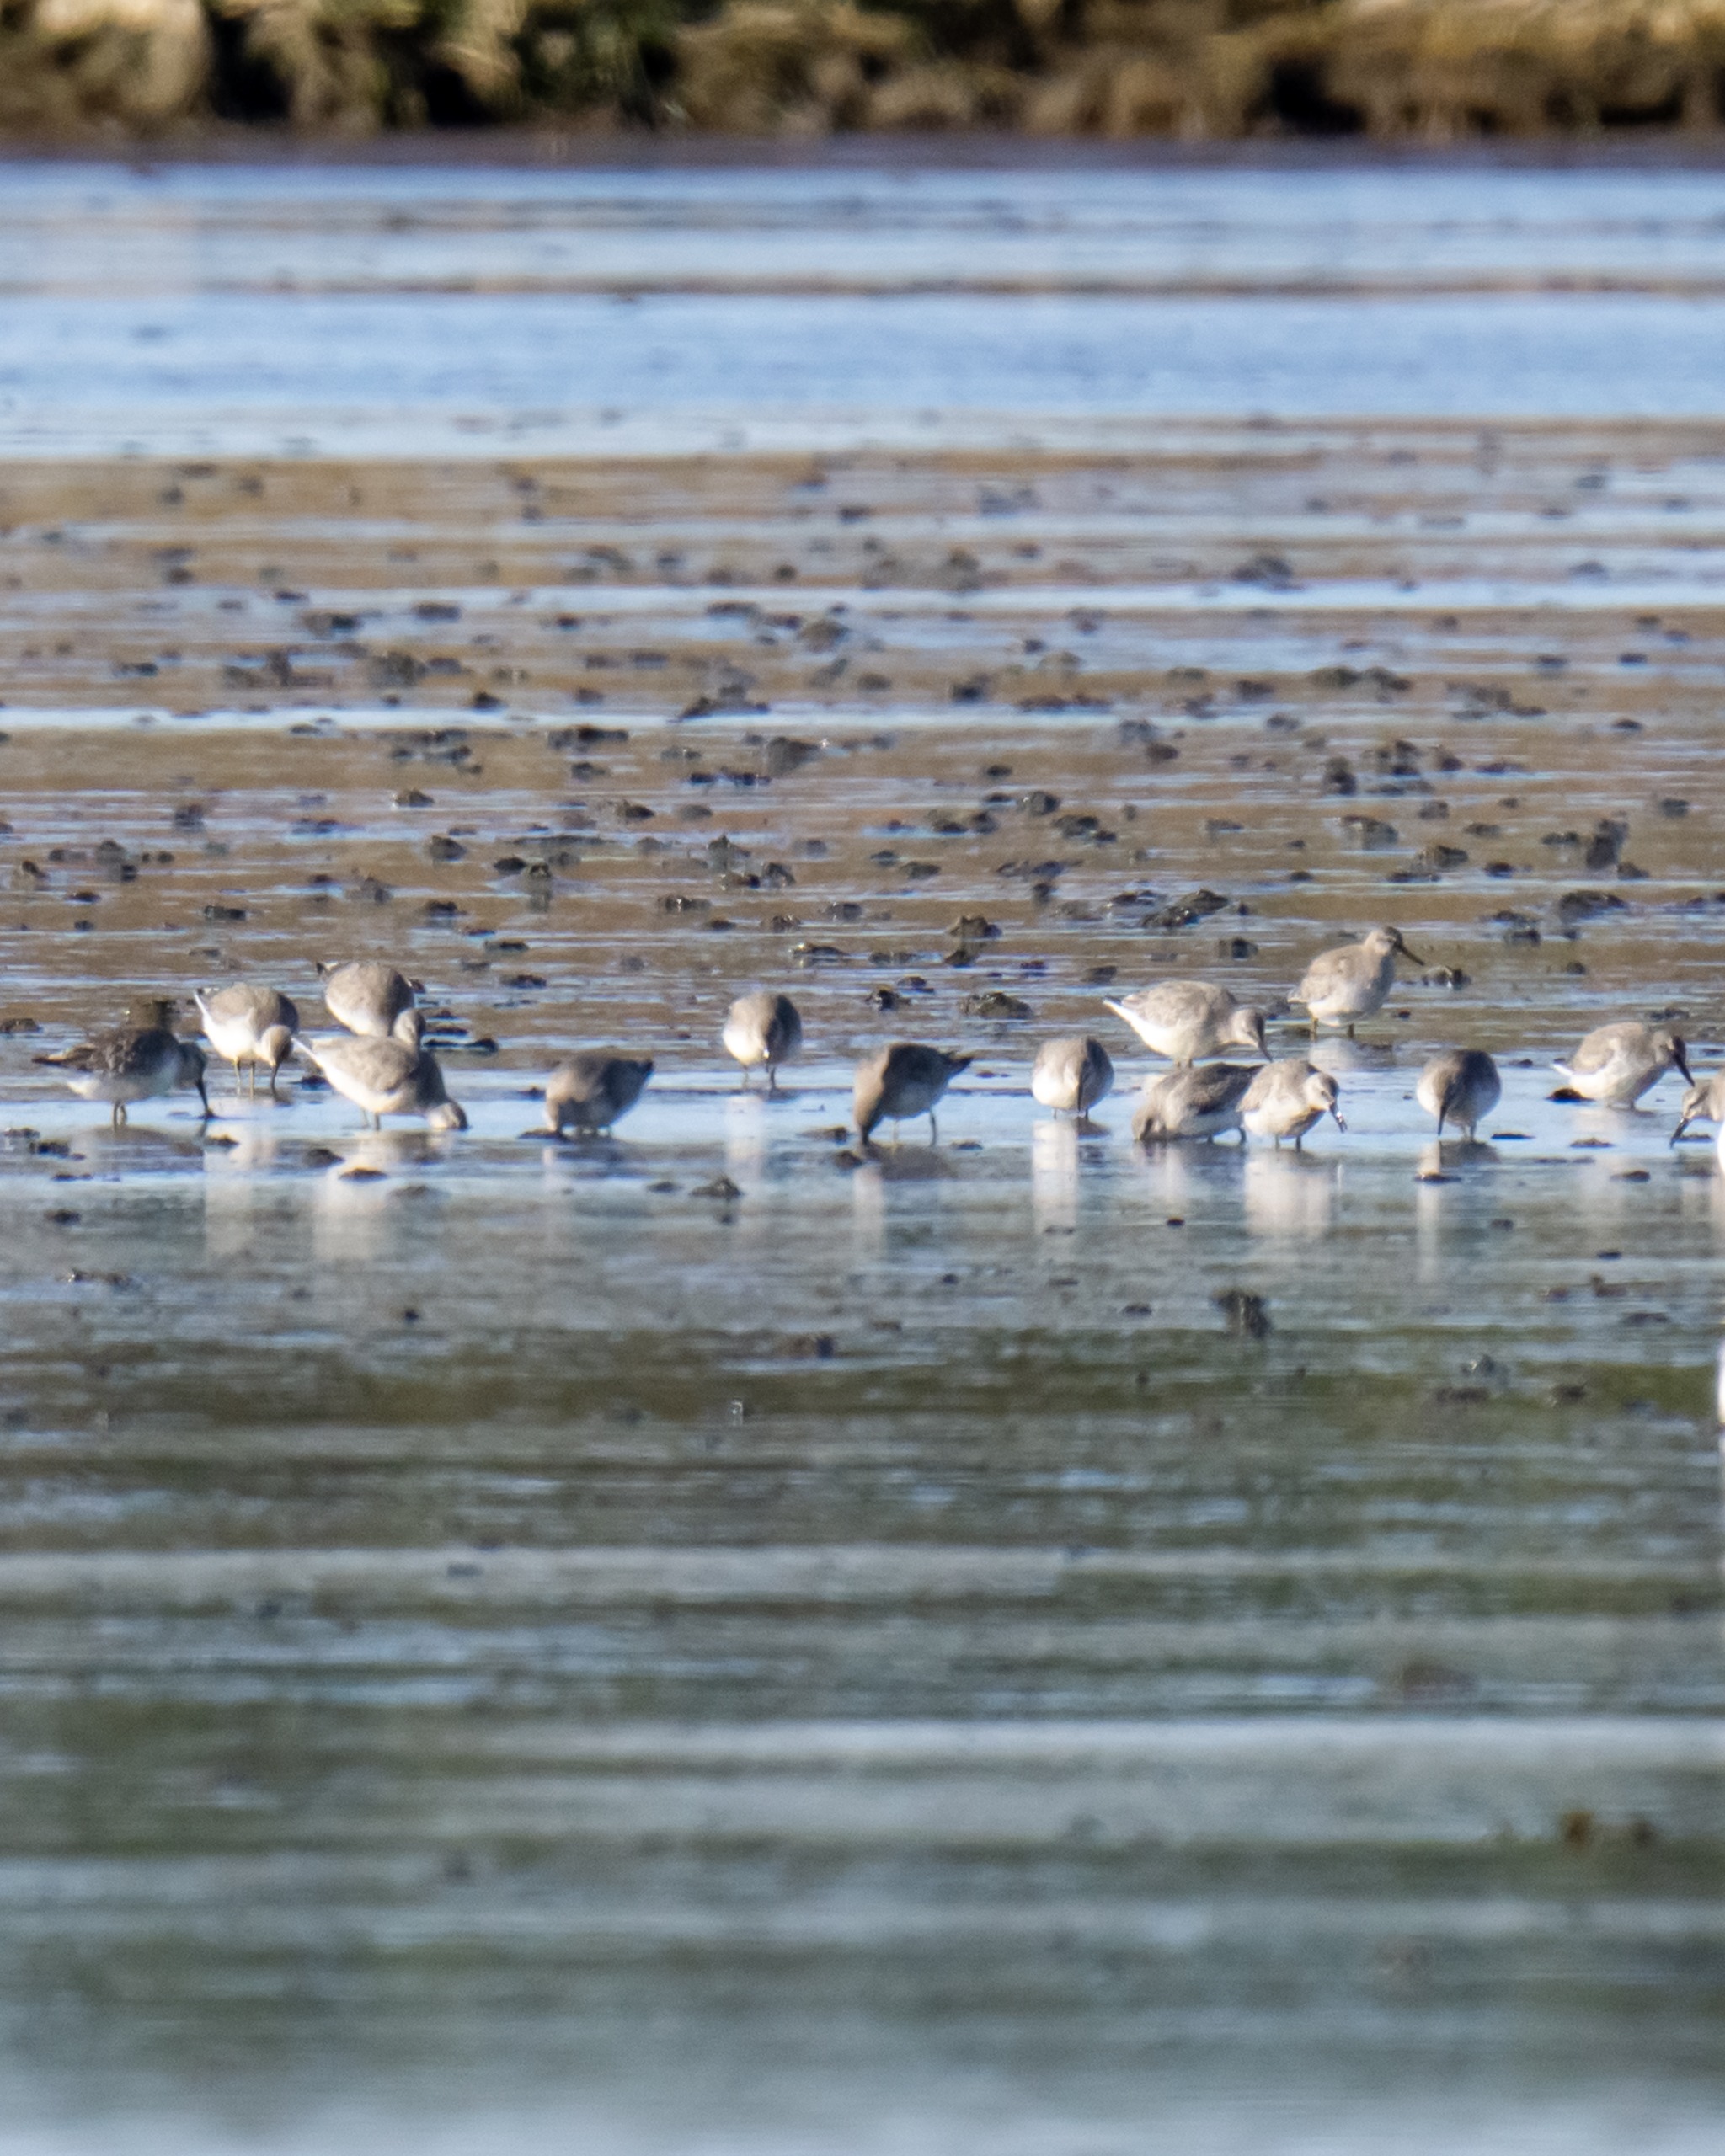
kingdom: Animalia
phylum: Chordata
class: Aves
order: Charadriiformes
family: Scolopacidae
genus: Calidris
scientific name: Calidris canutus
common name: Islandsk ryle
